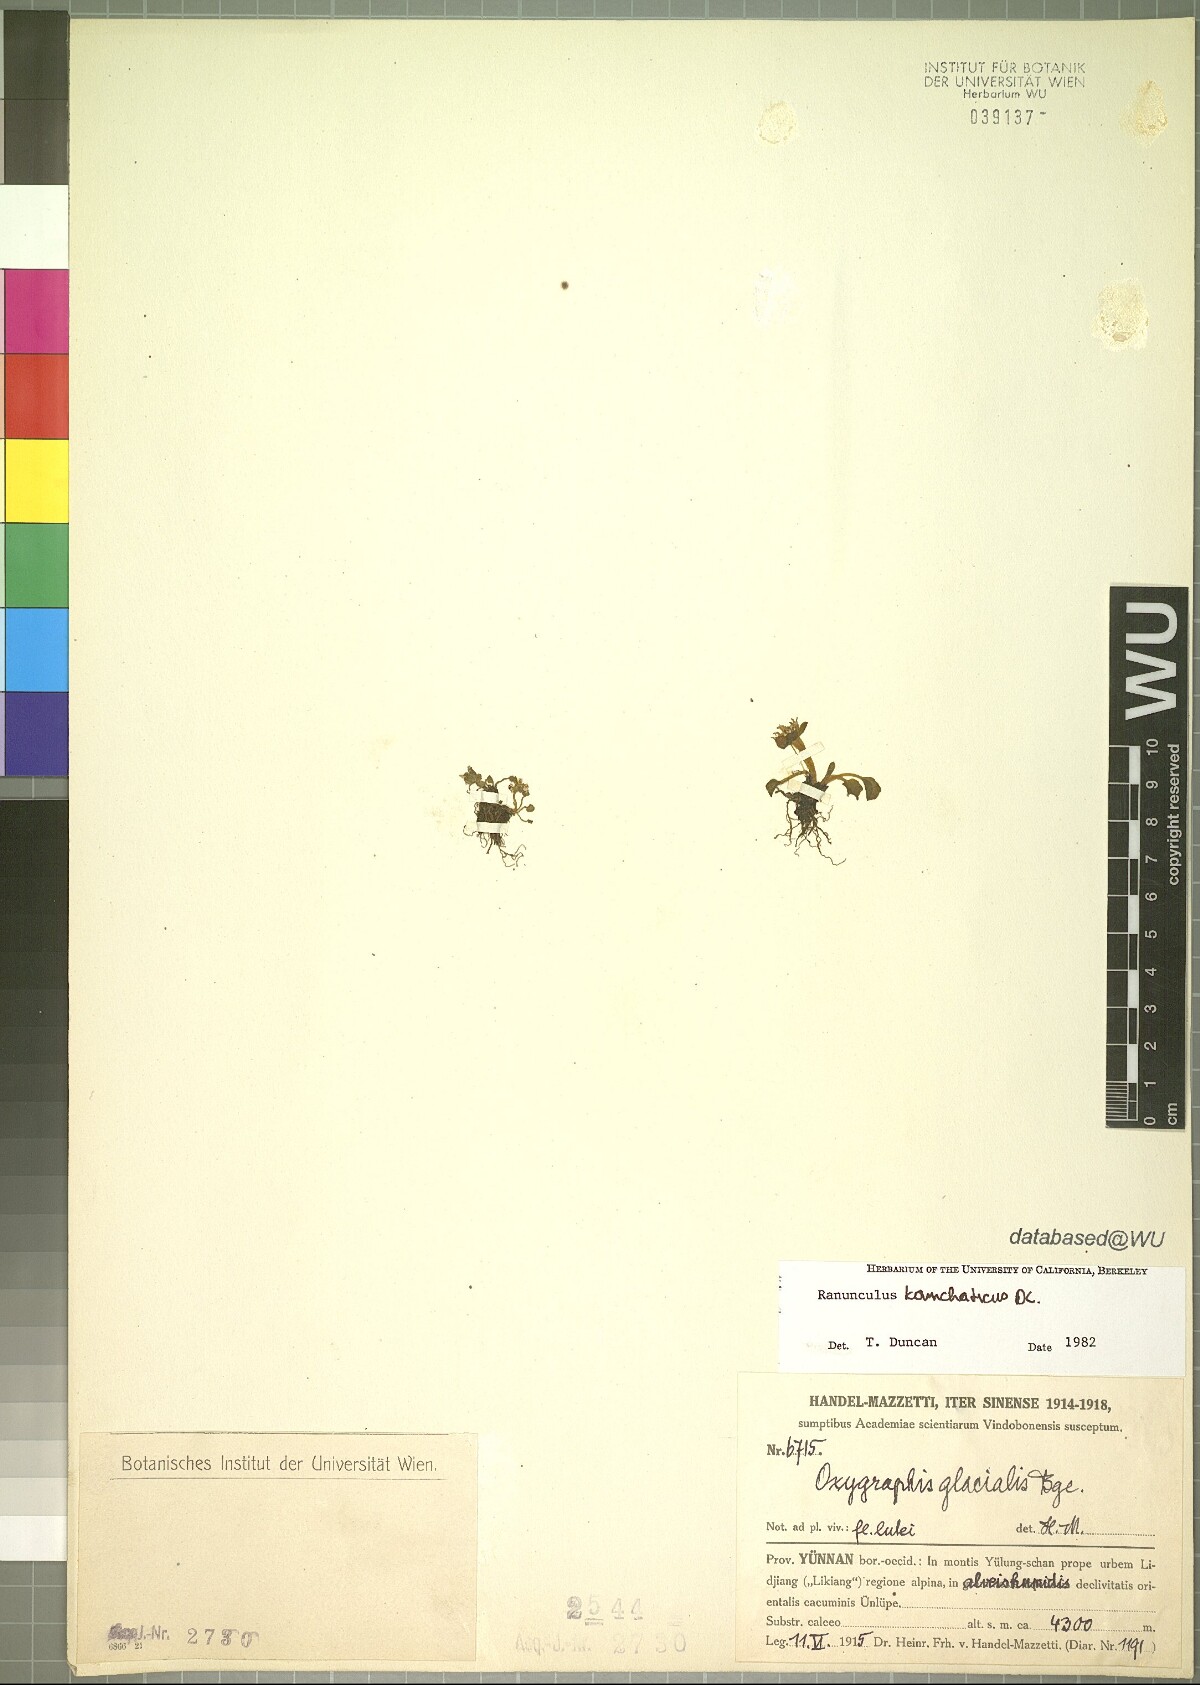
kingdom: Plantae
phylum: Tracheophyta
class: Magnoliopsida
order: Ranunculales
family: Ranunculaceae
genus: Oxygraphis
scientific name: Oxygraphis kamchatica
